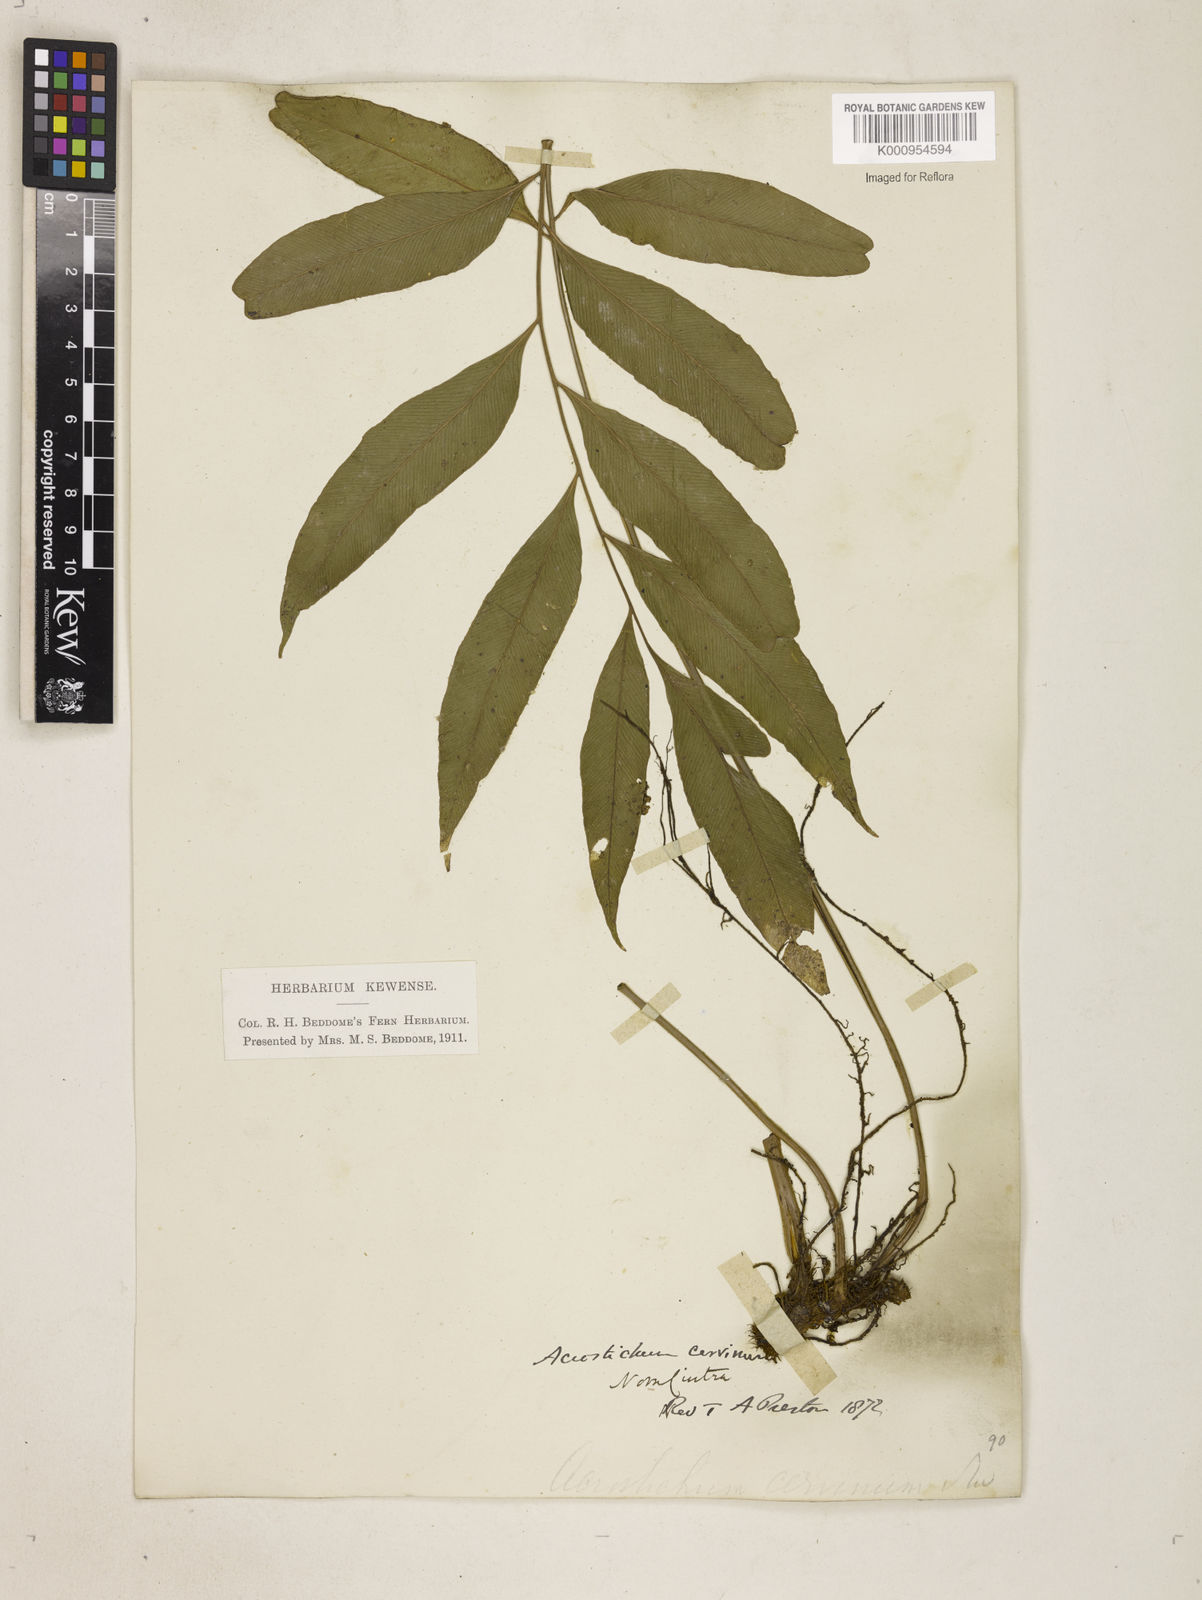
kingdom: Plantae
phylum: Tracheophyta
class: Polypodiopsida
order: Polypodiales
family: Dryopteridaceae
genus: Olfersia
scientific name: Olfersia cervina
